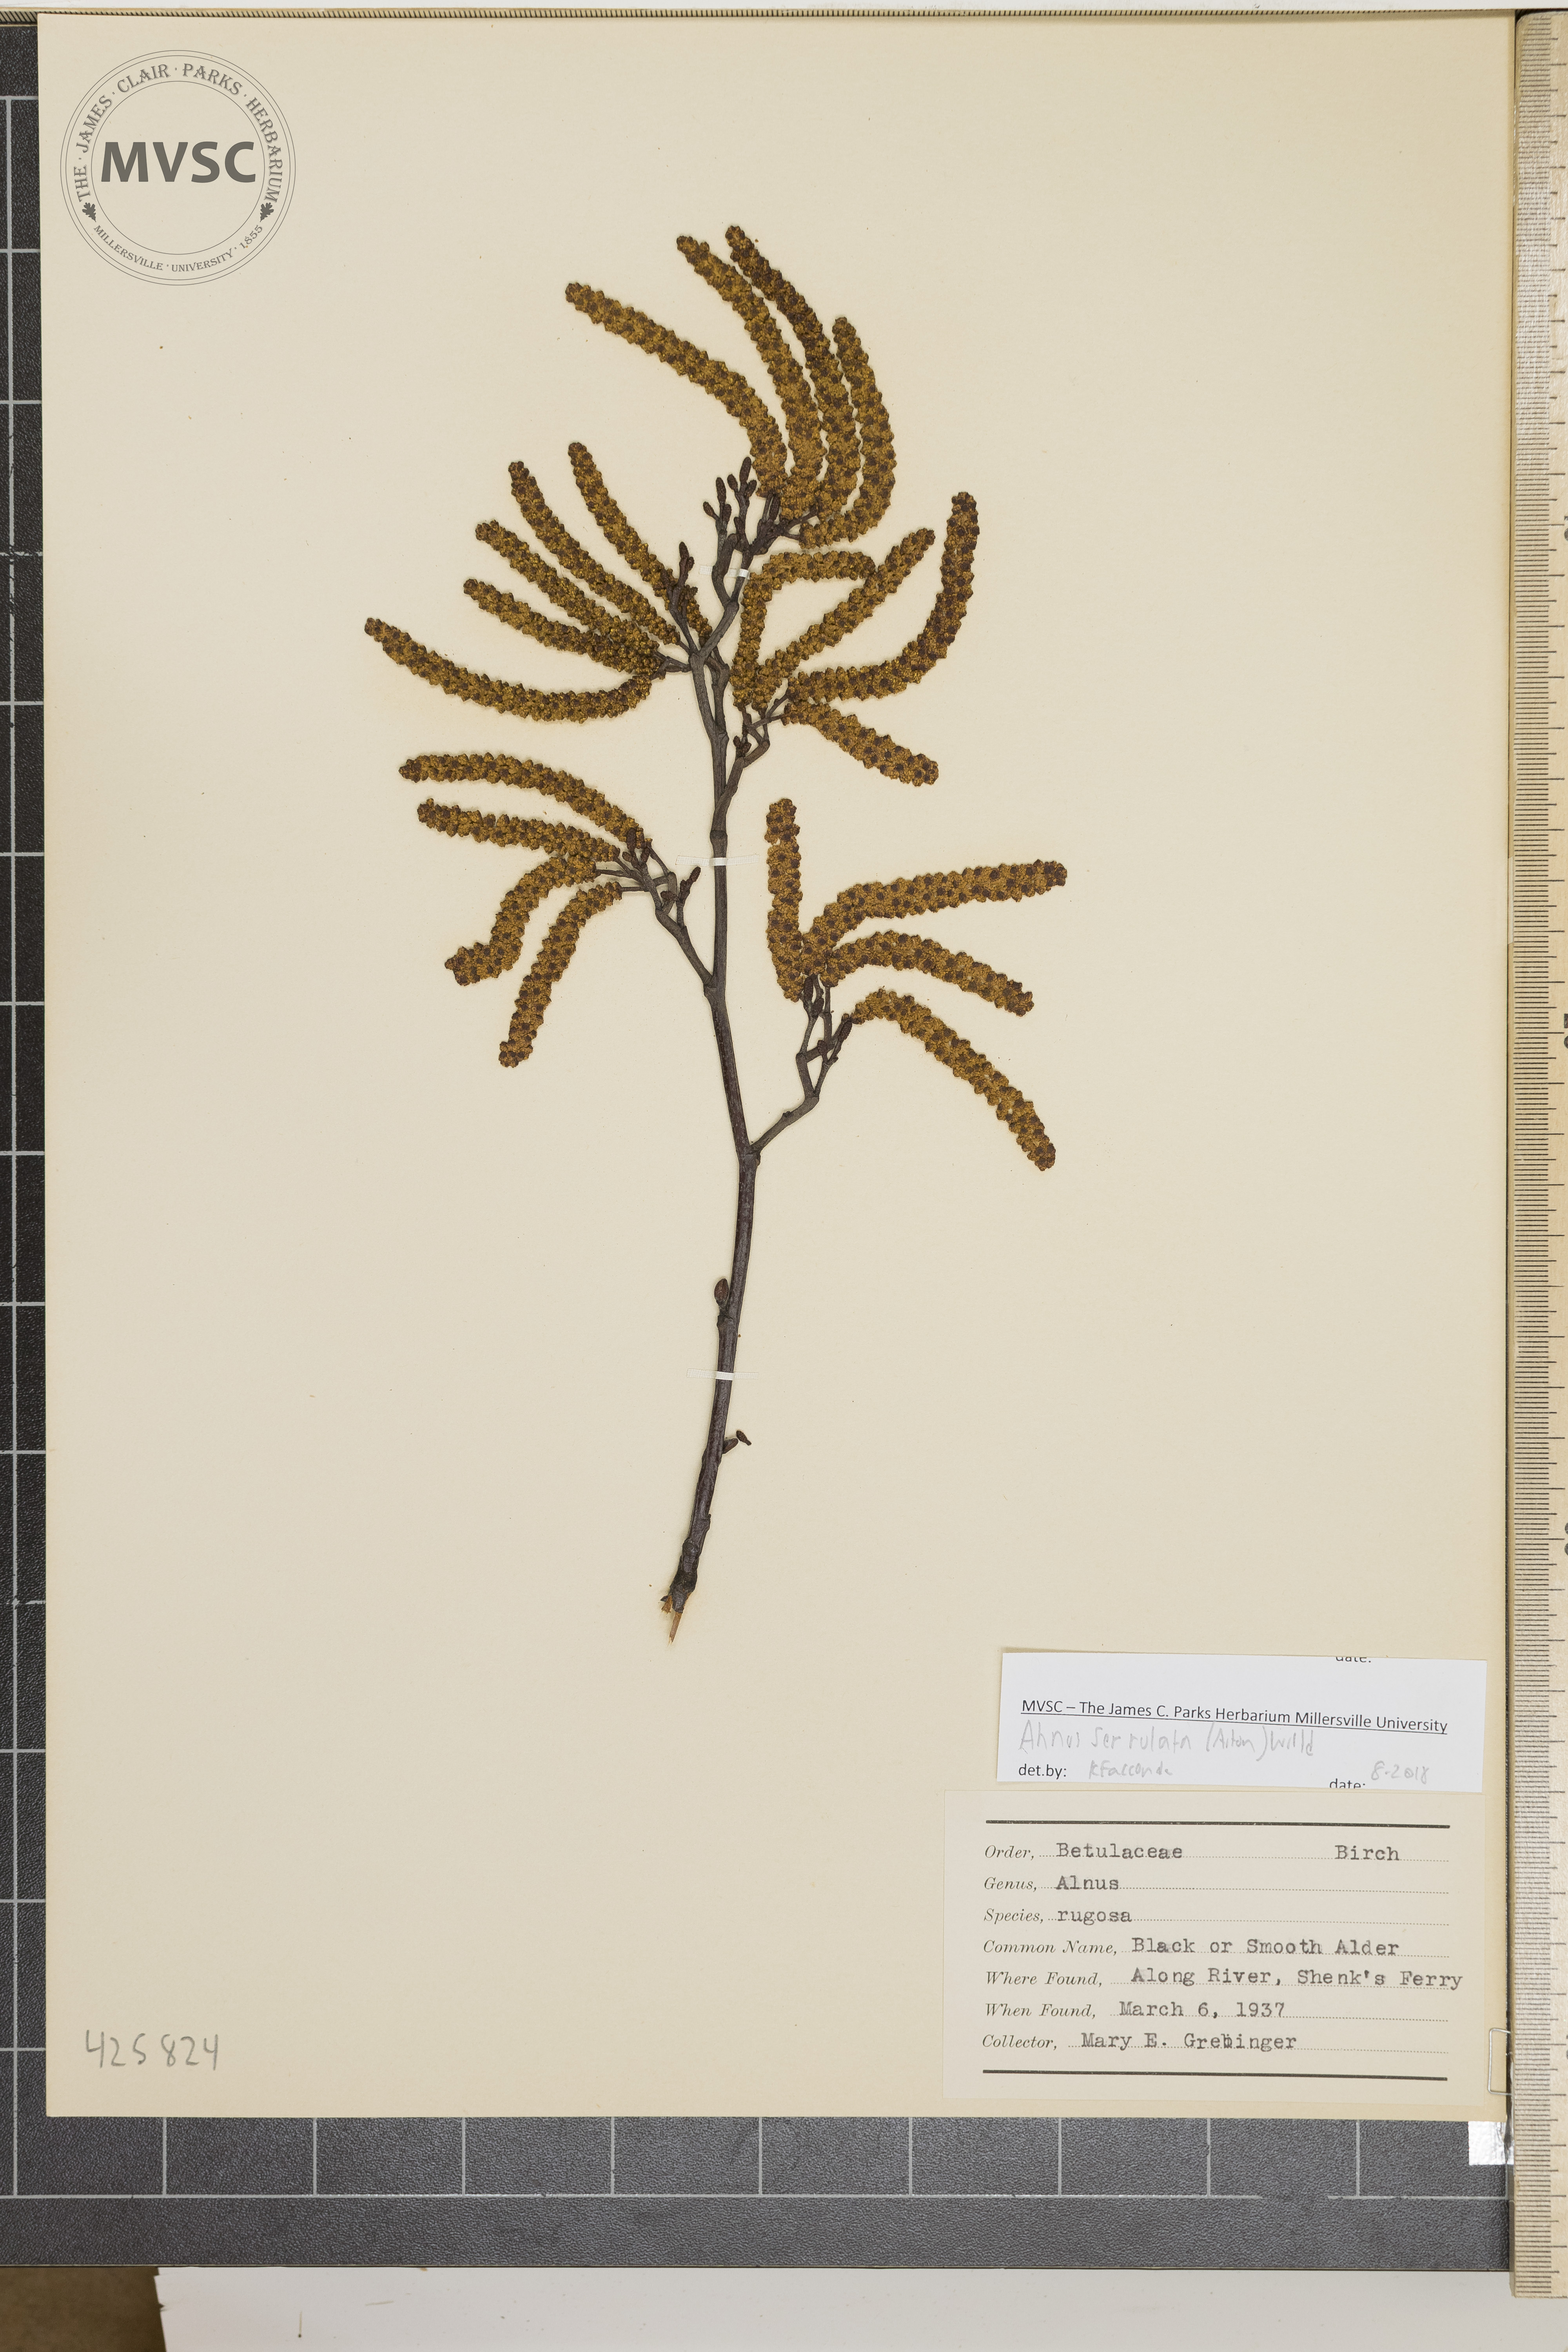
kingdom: Plantae
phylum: Tracheophyta
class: Magnoliopsida
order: Fagales
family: Betulaceae
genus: Betula
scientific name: Betula lenta
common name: Black birch
